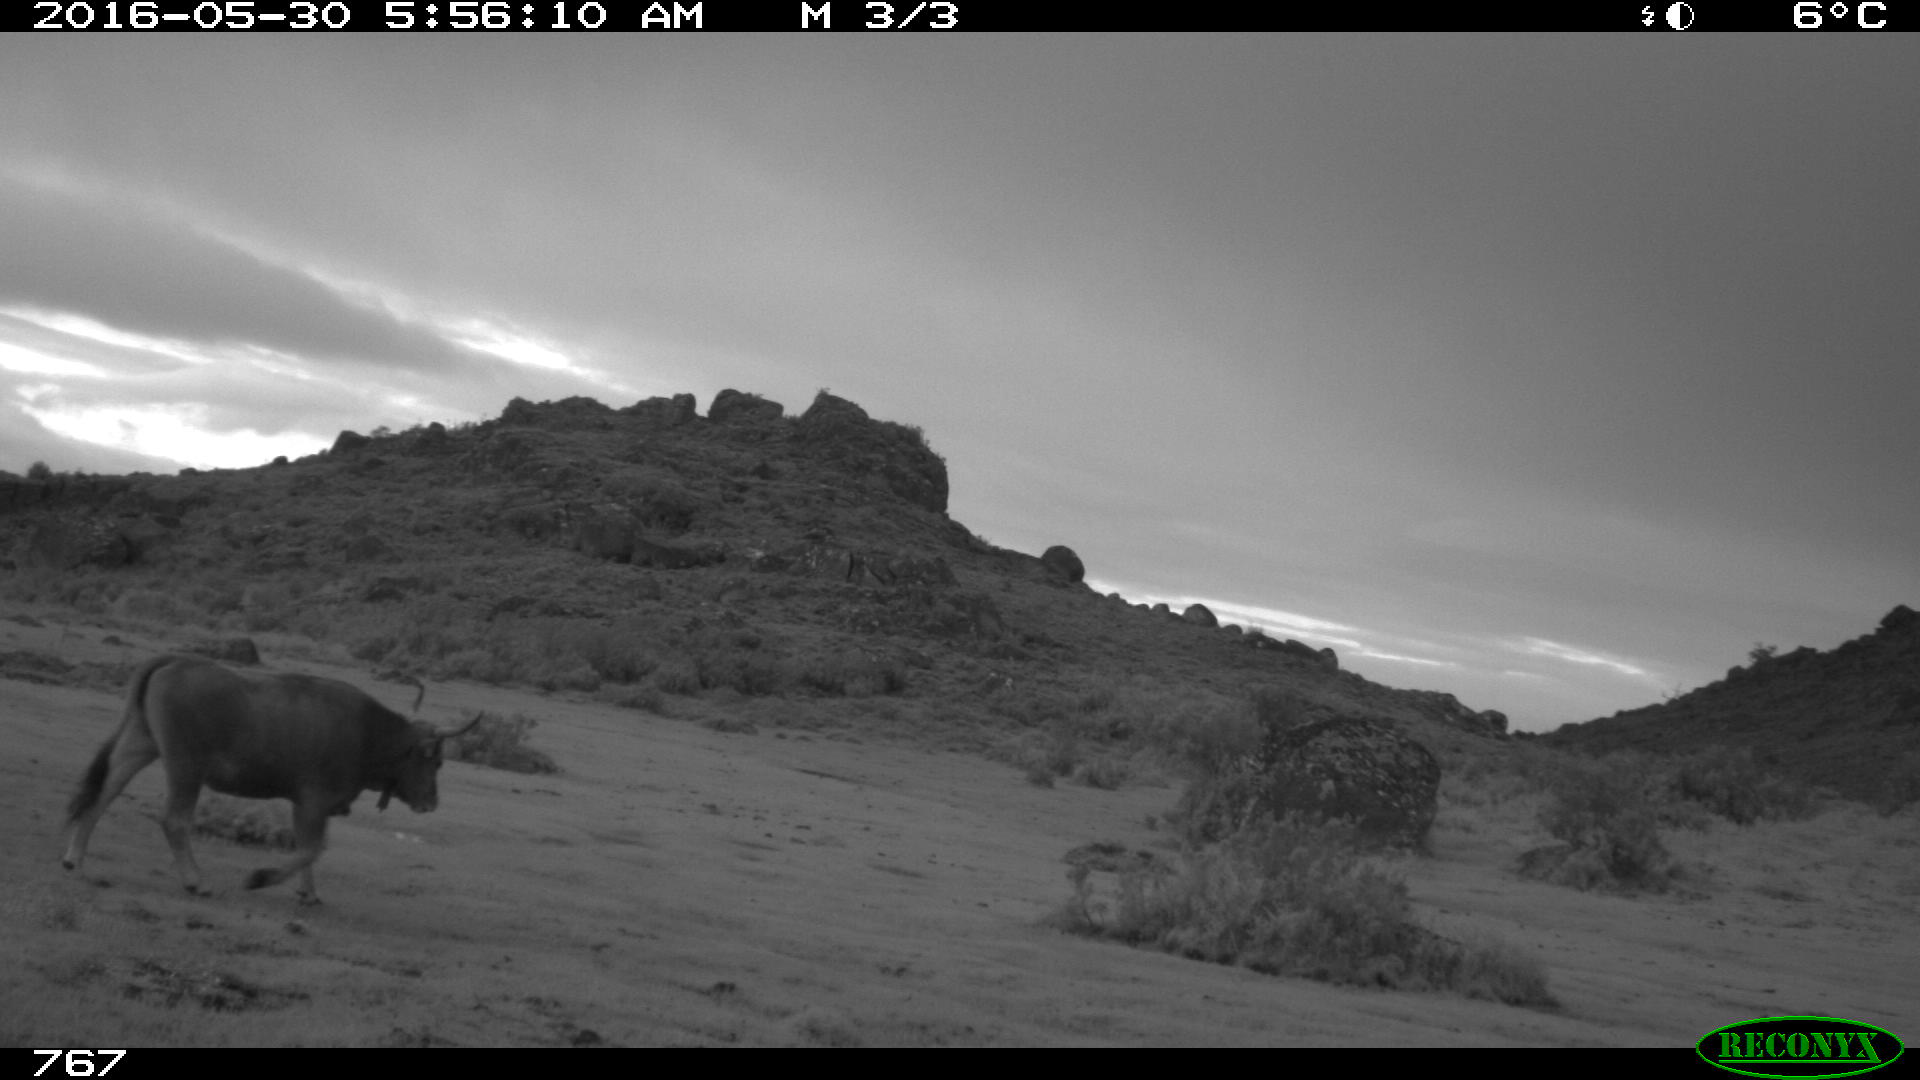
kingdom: Animalia
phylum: Chordata
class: Mammalia
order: Artiodactyla
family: Bovidae
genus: Bos
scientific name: Bos taurus
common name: Domesticated cattle
